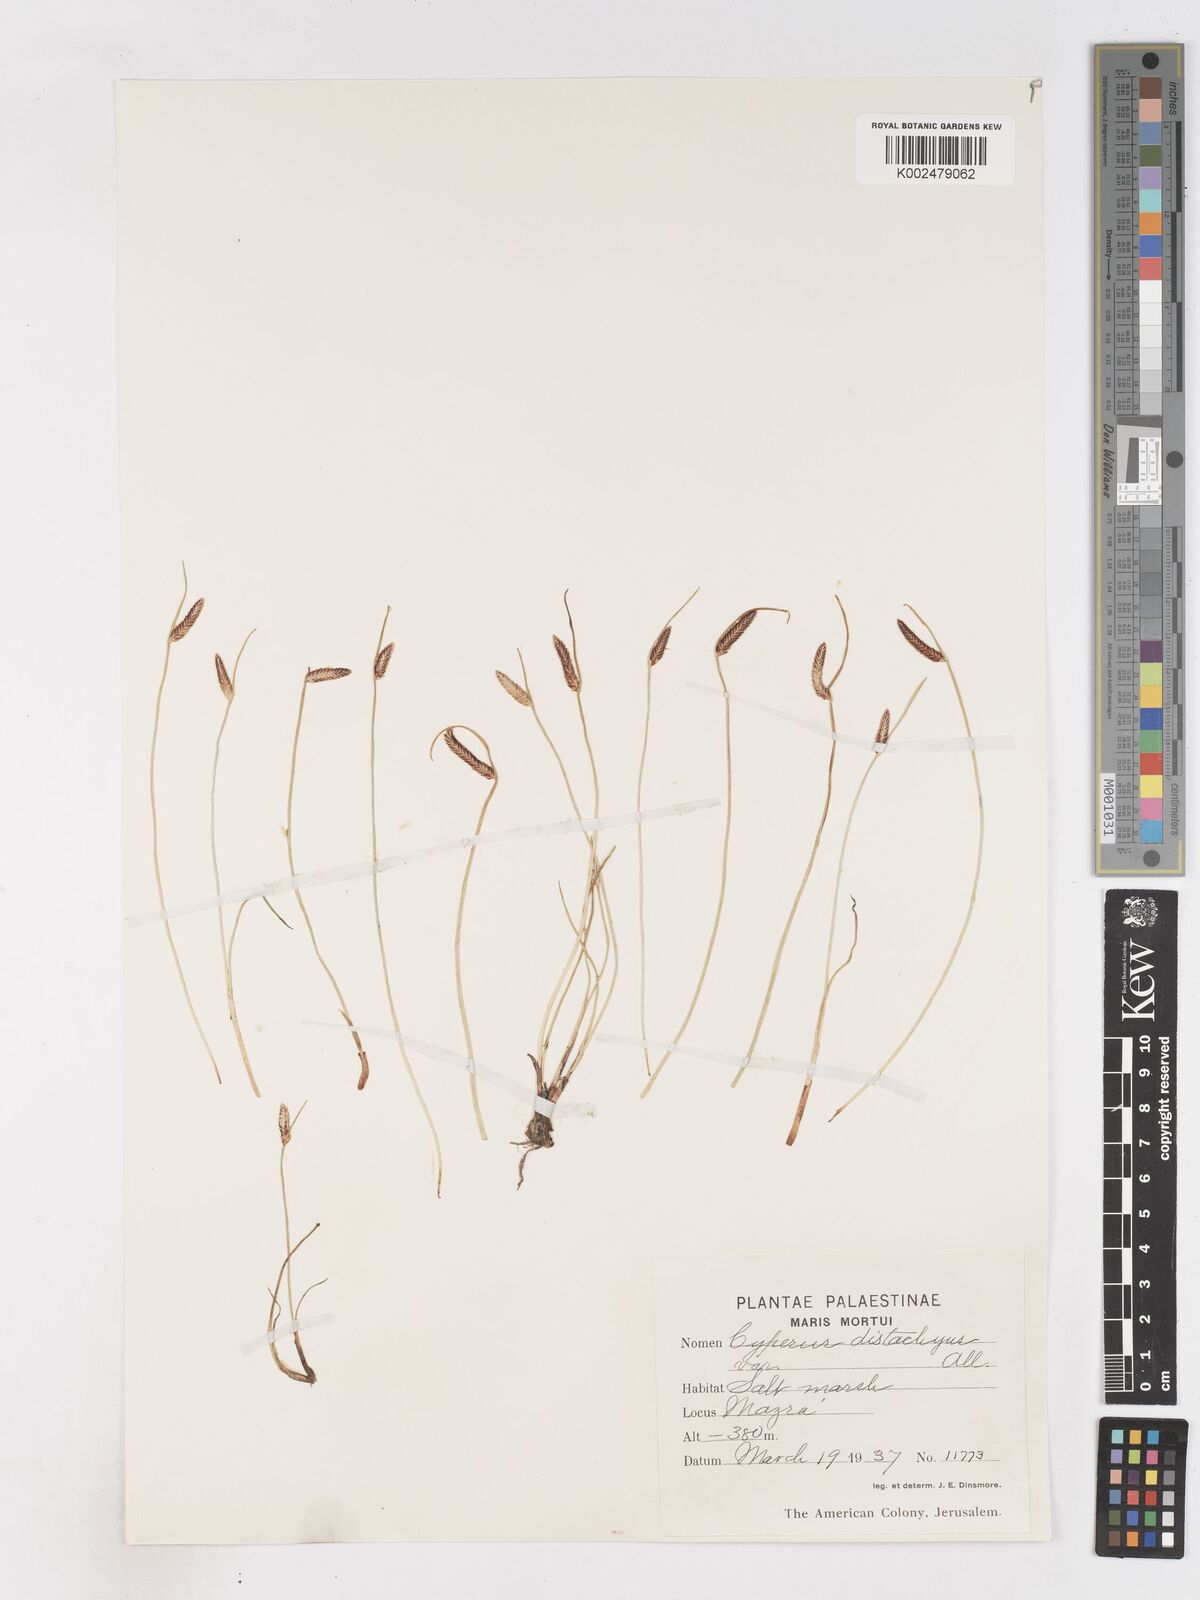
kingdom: Plantae
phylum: Tracheophyta
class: Liliopsida
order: Poales
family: Cyperaceae
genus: Cyperus
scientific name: Cyperus laevigatus
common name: Smooth flat sedge
